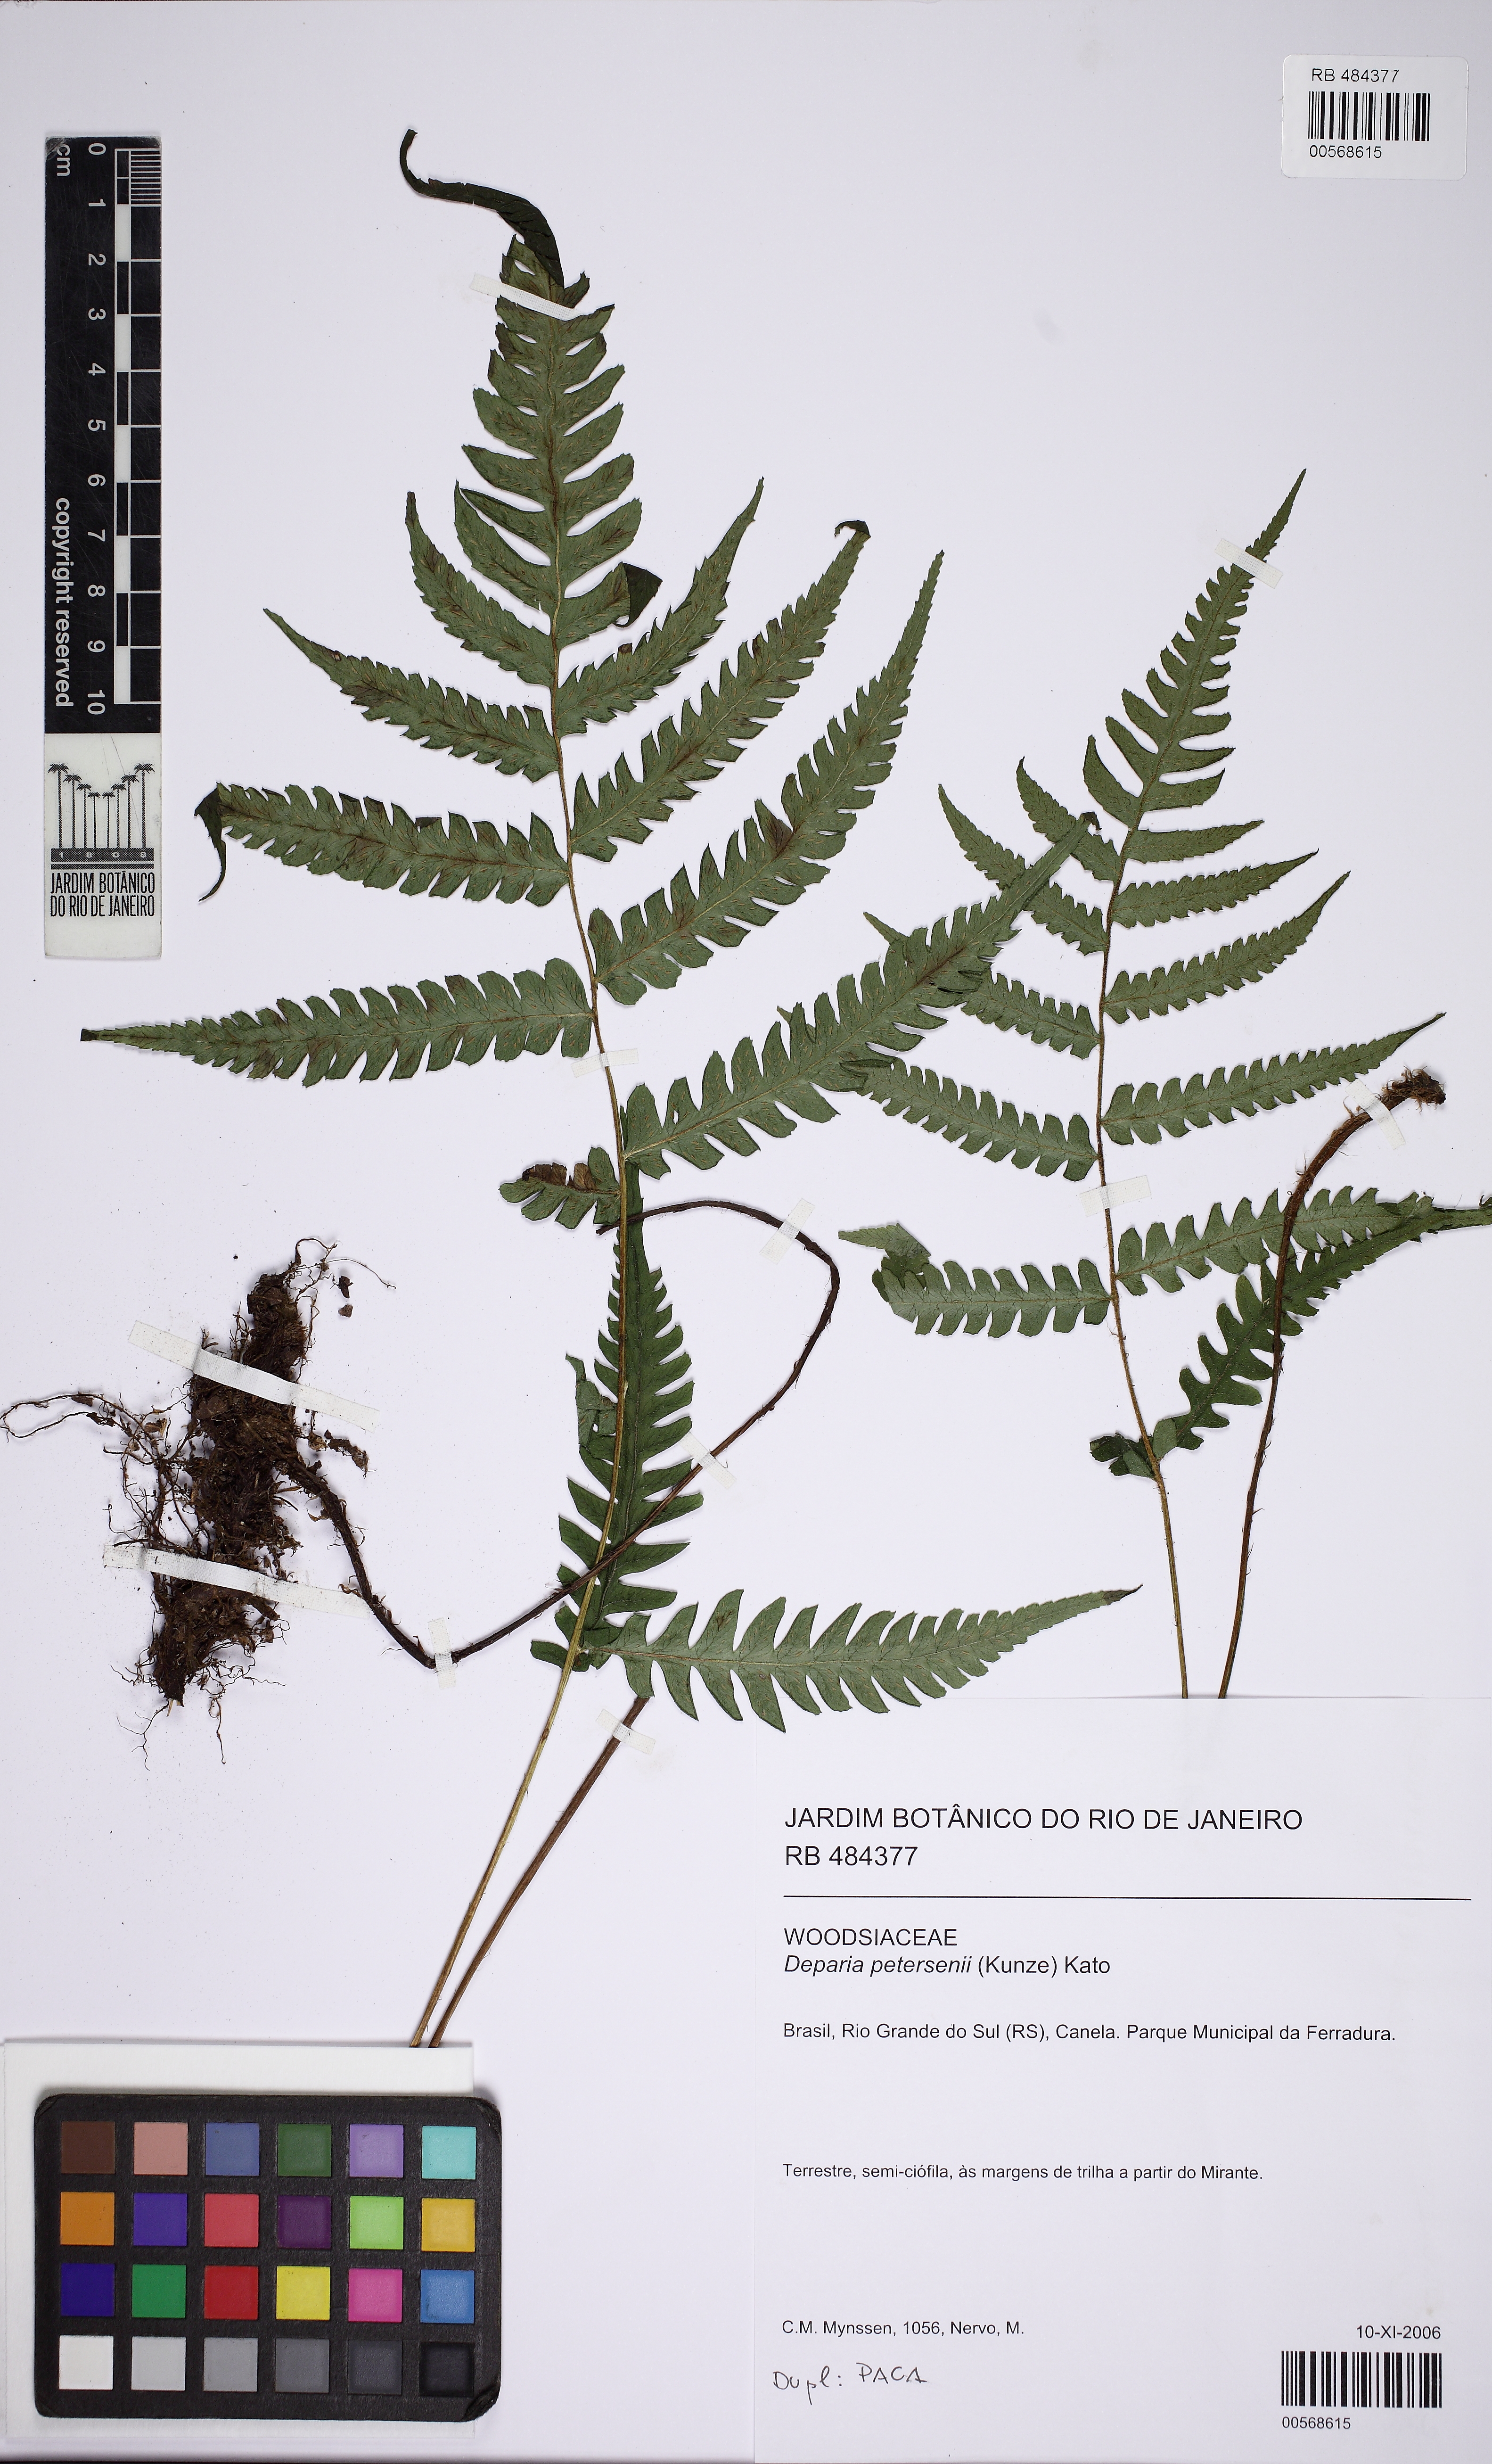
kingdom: Plantae
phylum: Tracheophyta
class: Polypodiopsida
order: Polypodiales
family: Athyriaceae
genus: Deparia
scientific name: Deparia petersenii
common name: Japanese false spleenwort
